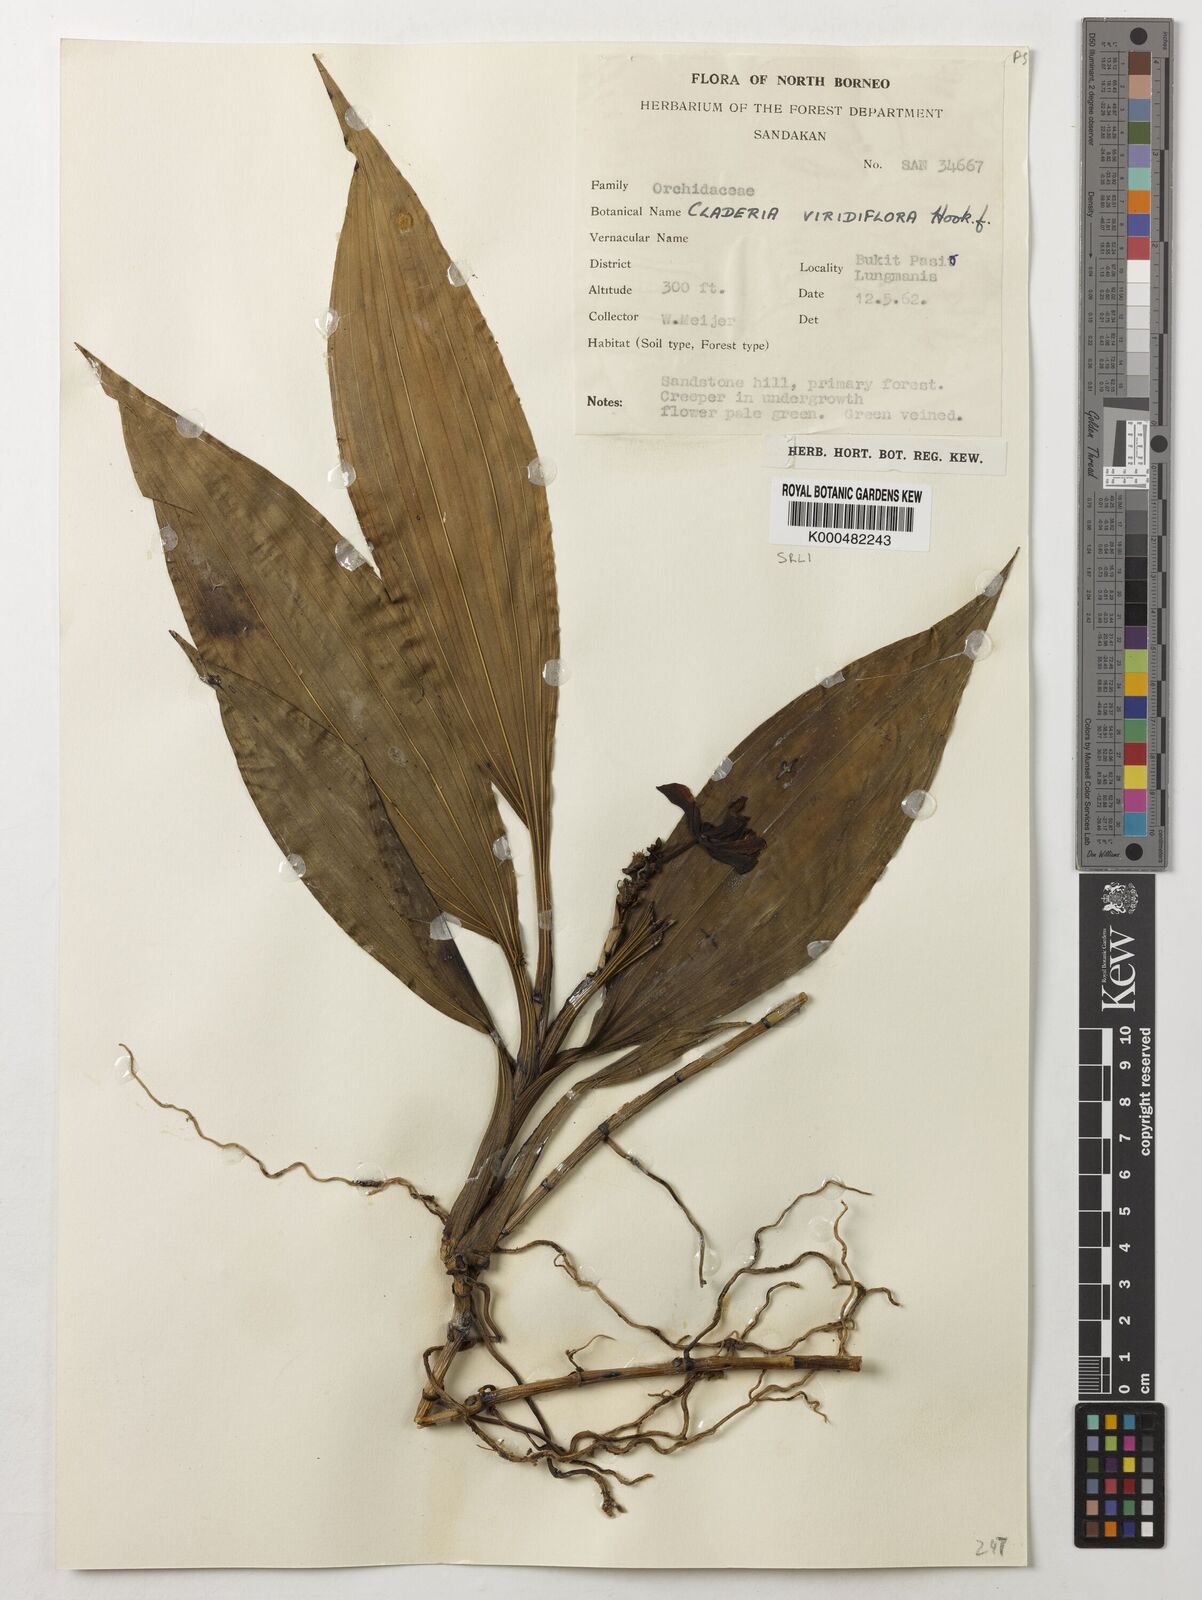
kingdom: Plantae
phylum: Tracheophyta
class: Liliopsida
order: Asparagales
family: Orchidaceae
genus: Claderia
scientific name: Claderia
